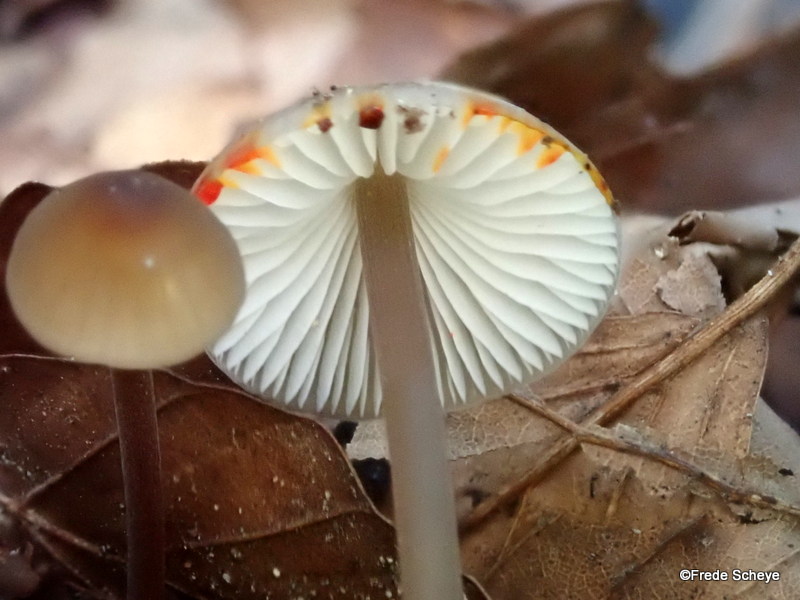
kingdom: Fungi
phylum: Basidiomycota
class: Agaricomycetes
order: Agaricales
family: Mycenaceae
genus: Mycena
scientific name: Mycena crocata
